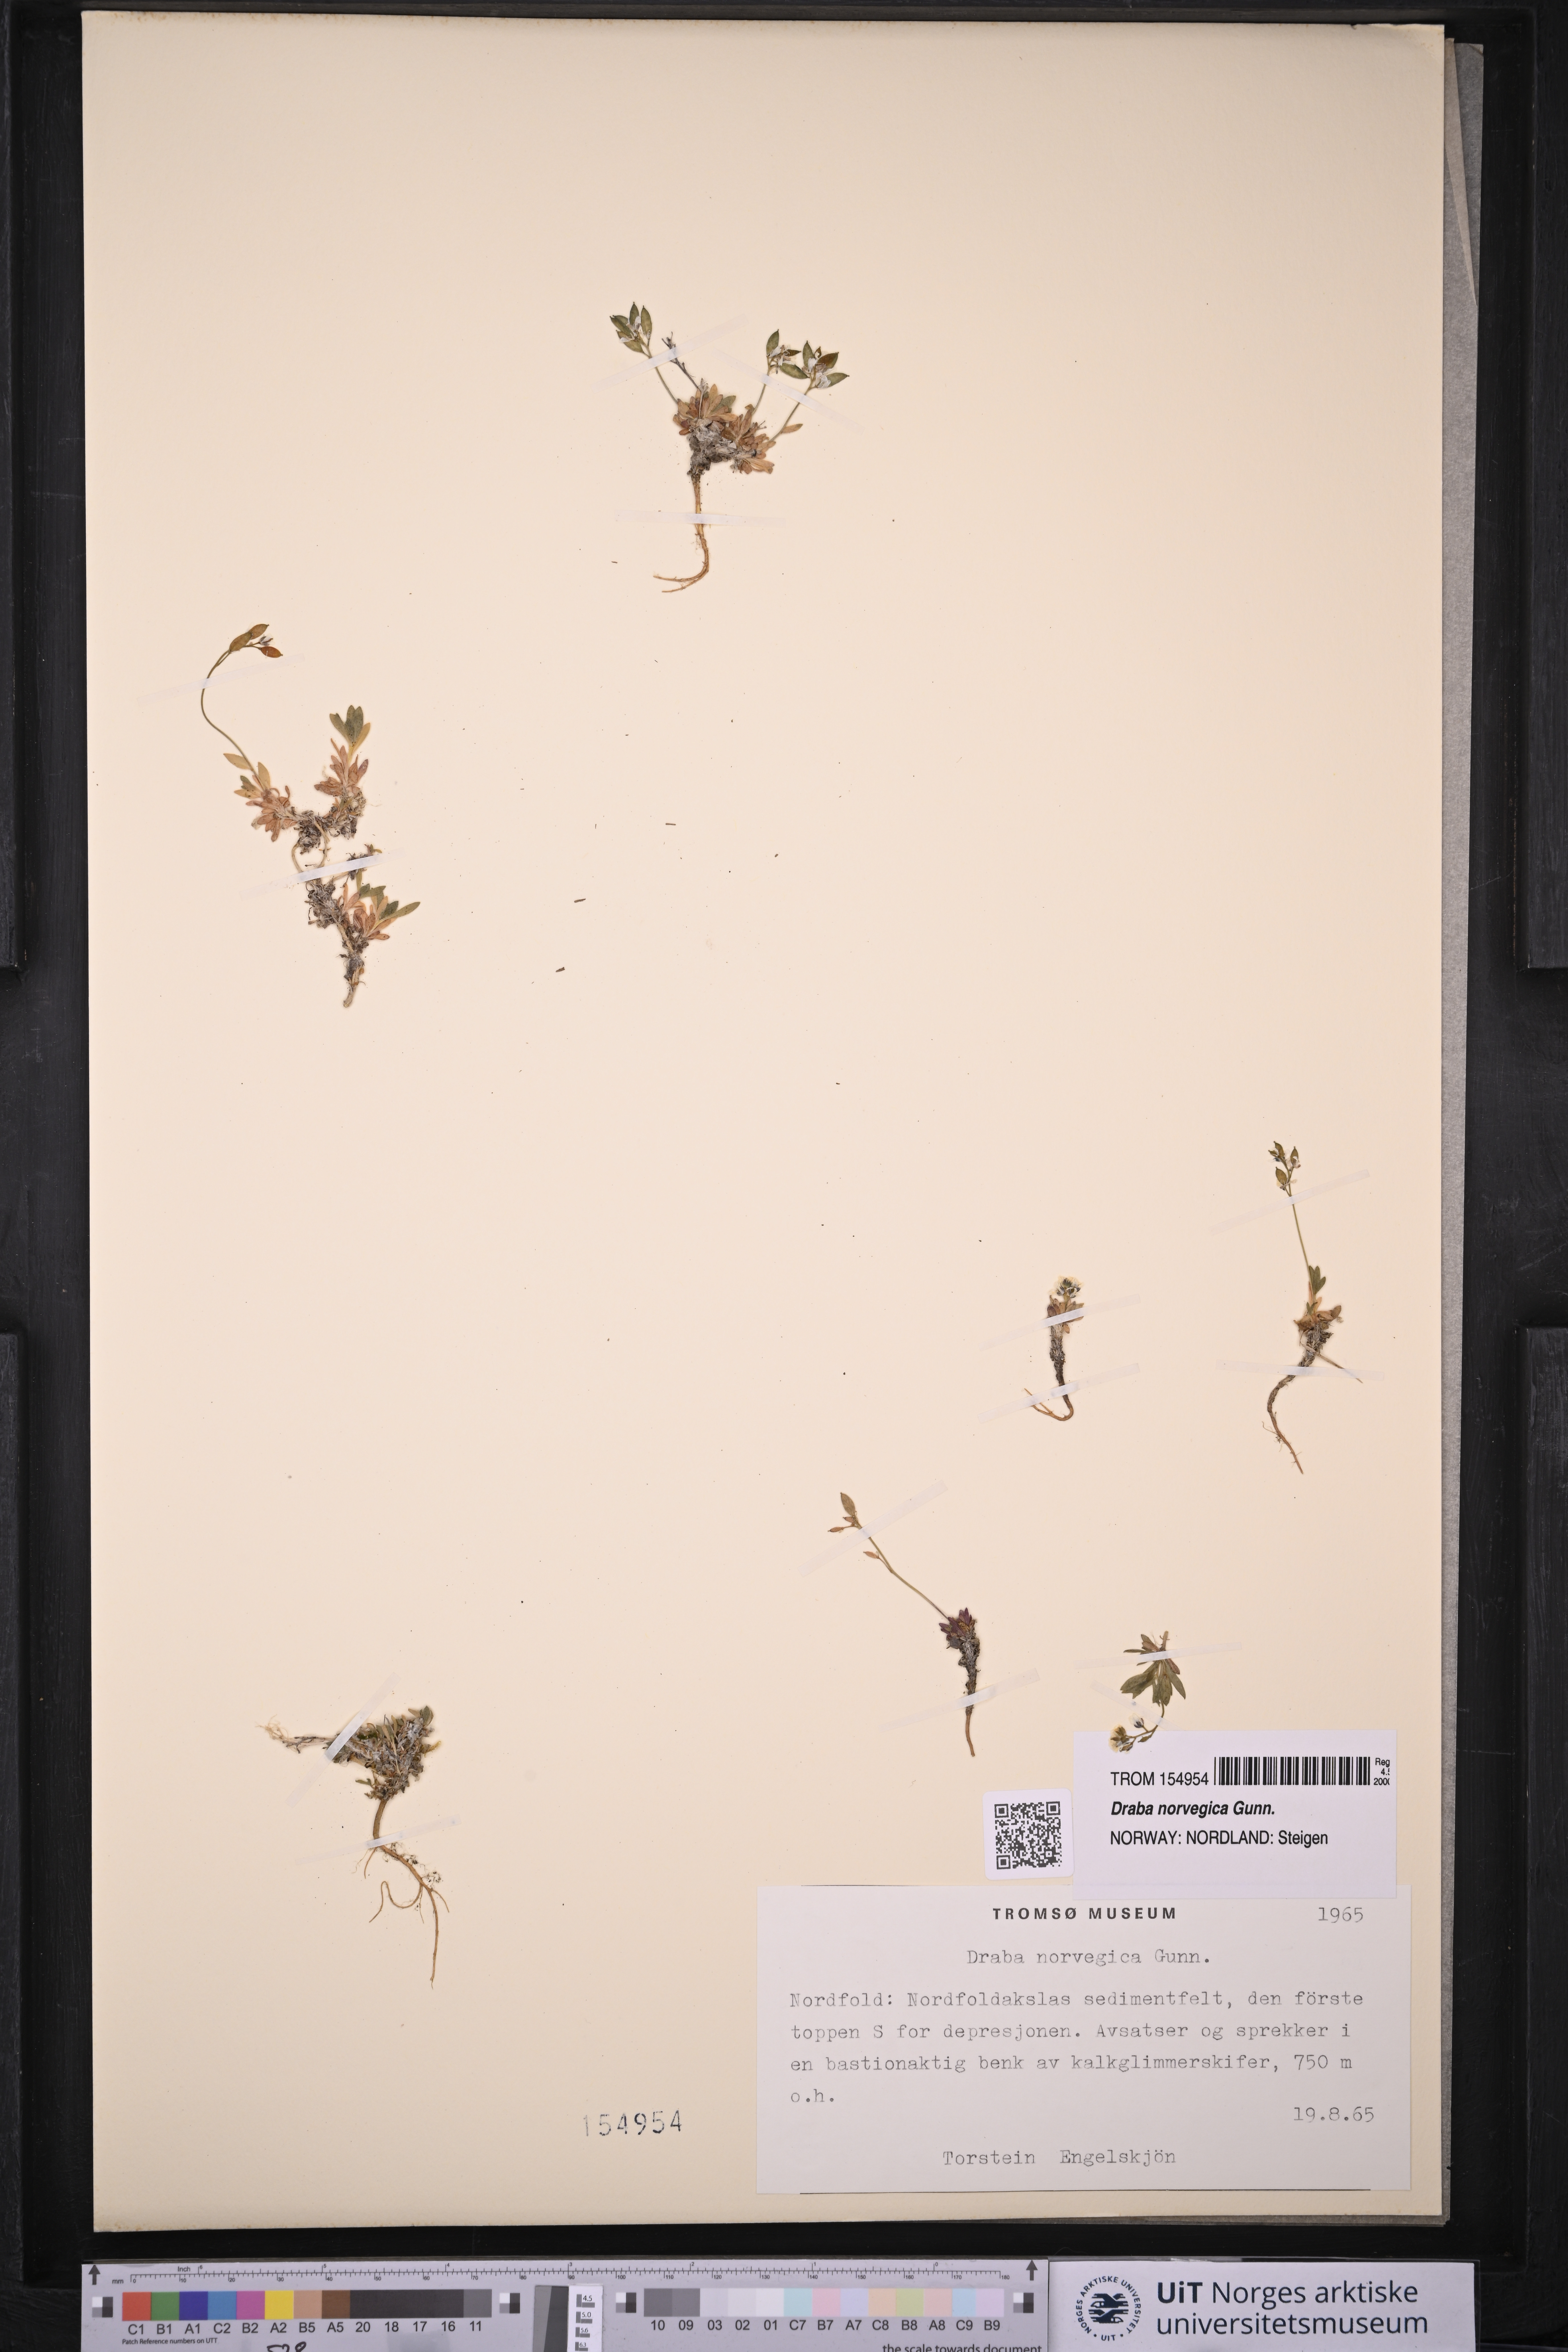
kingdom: Plantae
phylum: Tracheophyta
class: Magnoliopsida
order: Brassicales
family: Brassicaceae
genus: Draba
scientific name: Draba norvegica
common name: Rock whitlowgrass
